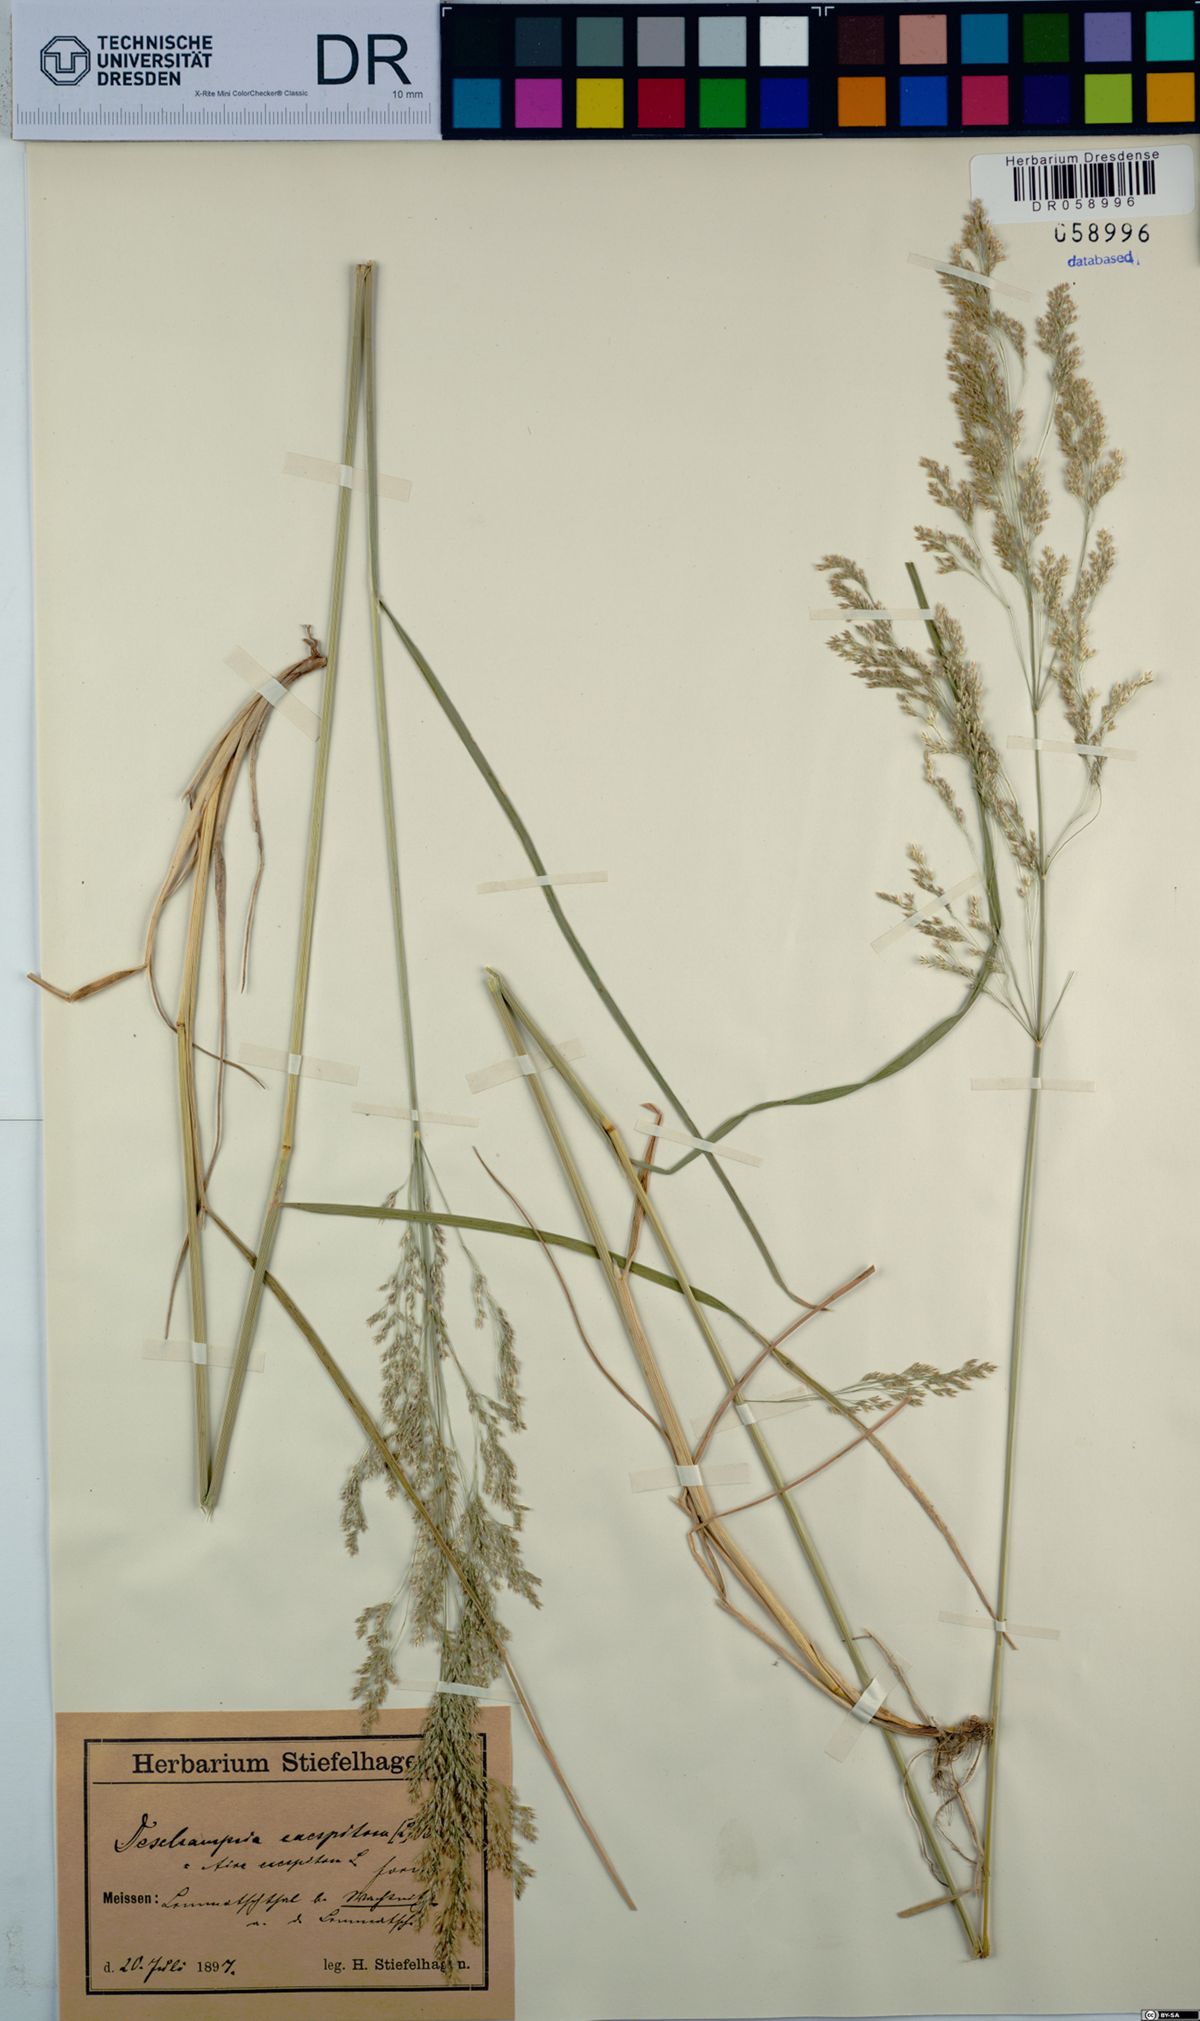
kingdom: Plantae
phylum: Tracheophyta
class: Liliopsida
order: Poales
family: Poaceae
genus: Deschampsia
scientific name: Deschampsia cespitosa
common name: Tufted hair-grass
